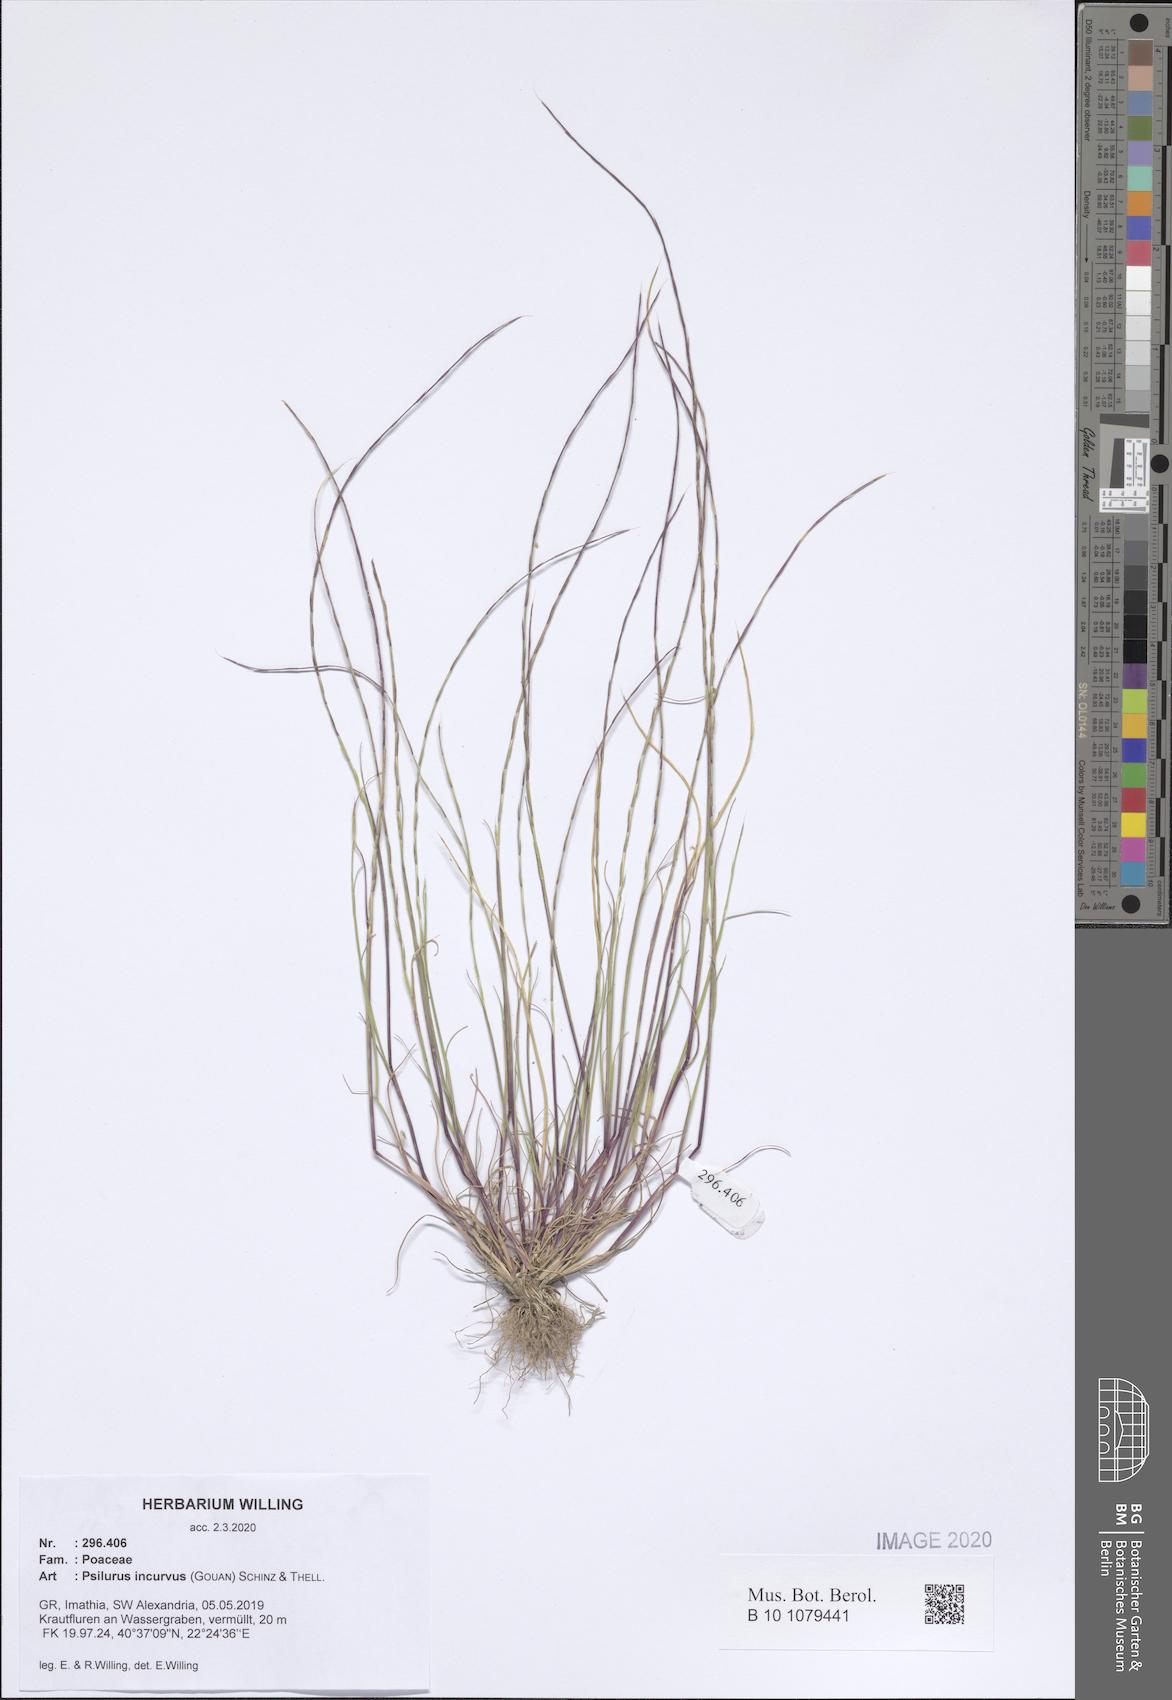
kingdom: Plantae
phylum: Tracheophyta
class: Liliopsida
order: Poales
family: Poaceae
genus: Festuca
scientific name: Festuca incurva
